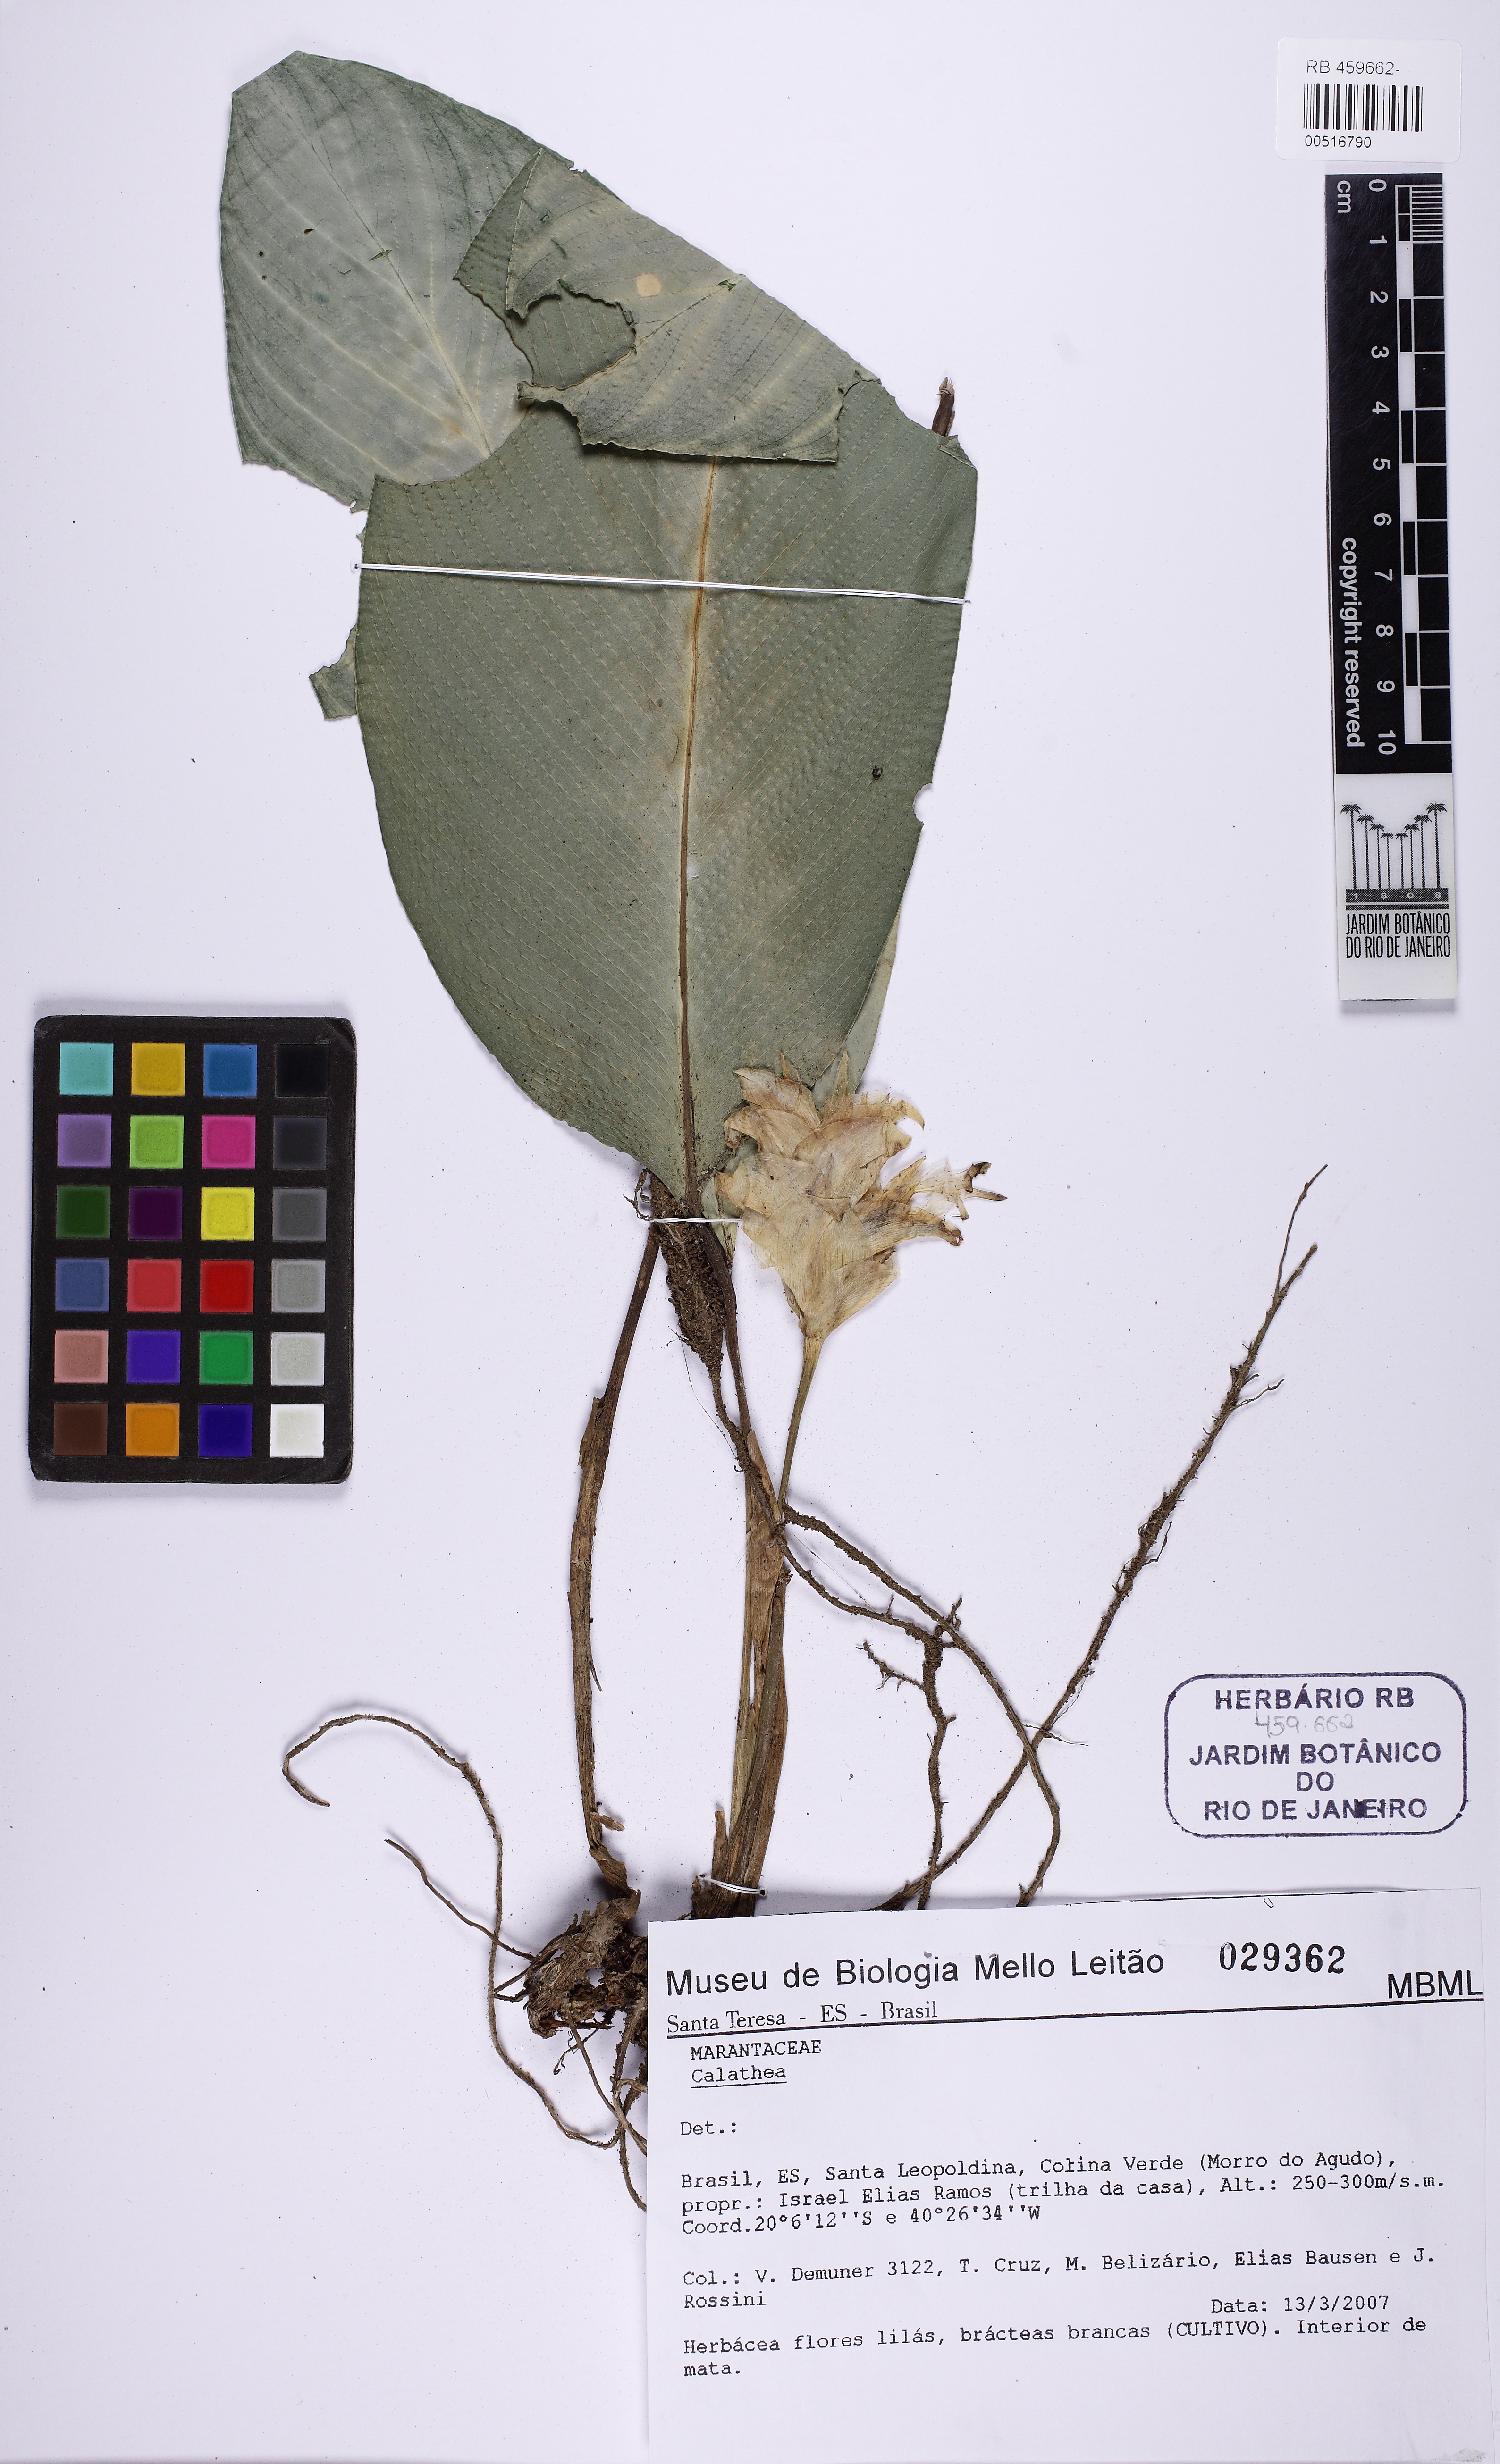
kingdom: Plantae
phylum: Tracheophyta
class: Liliopsida
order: Zingiberales
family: Marantaceae
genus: Calathea
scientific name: Calathea
